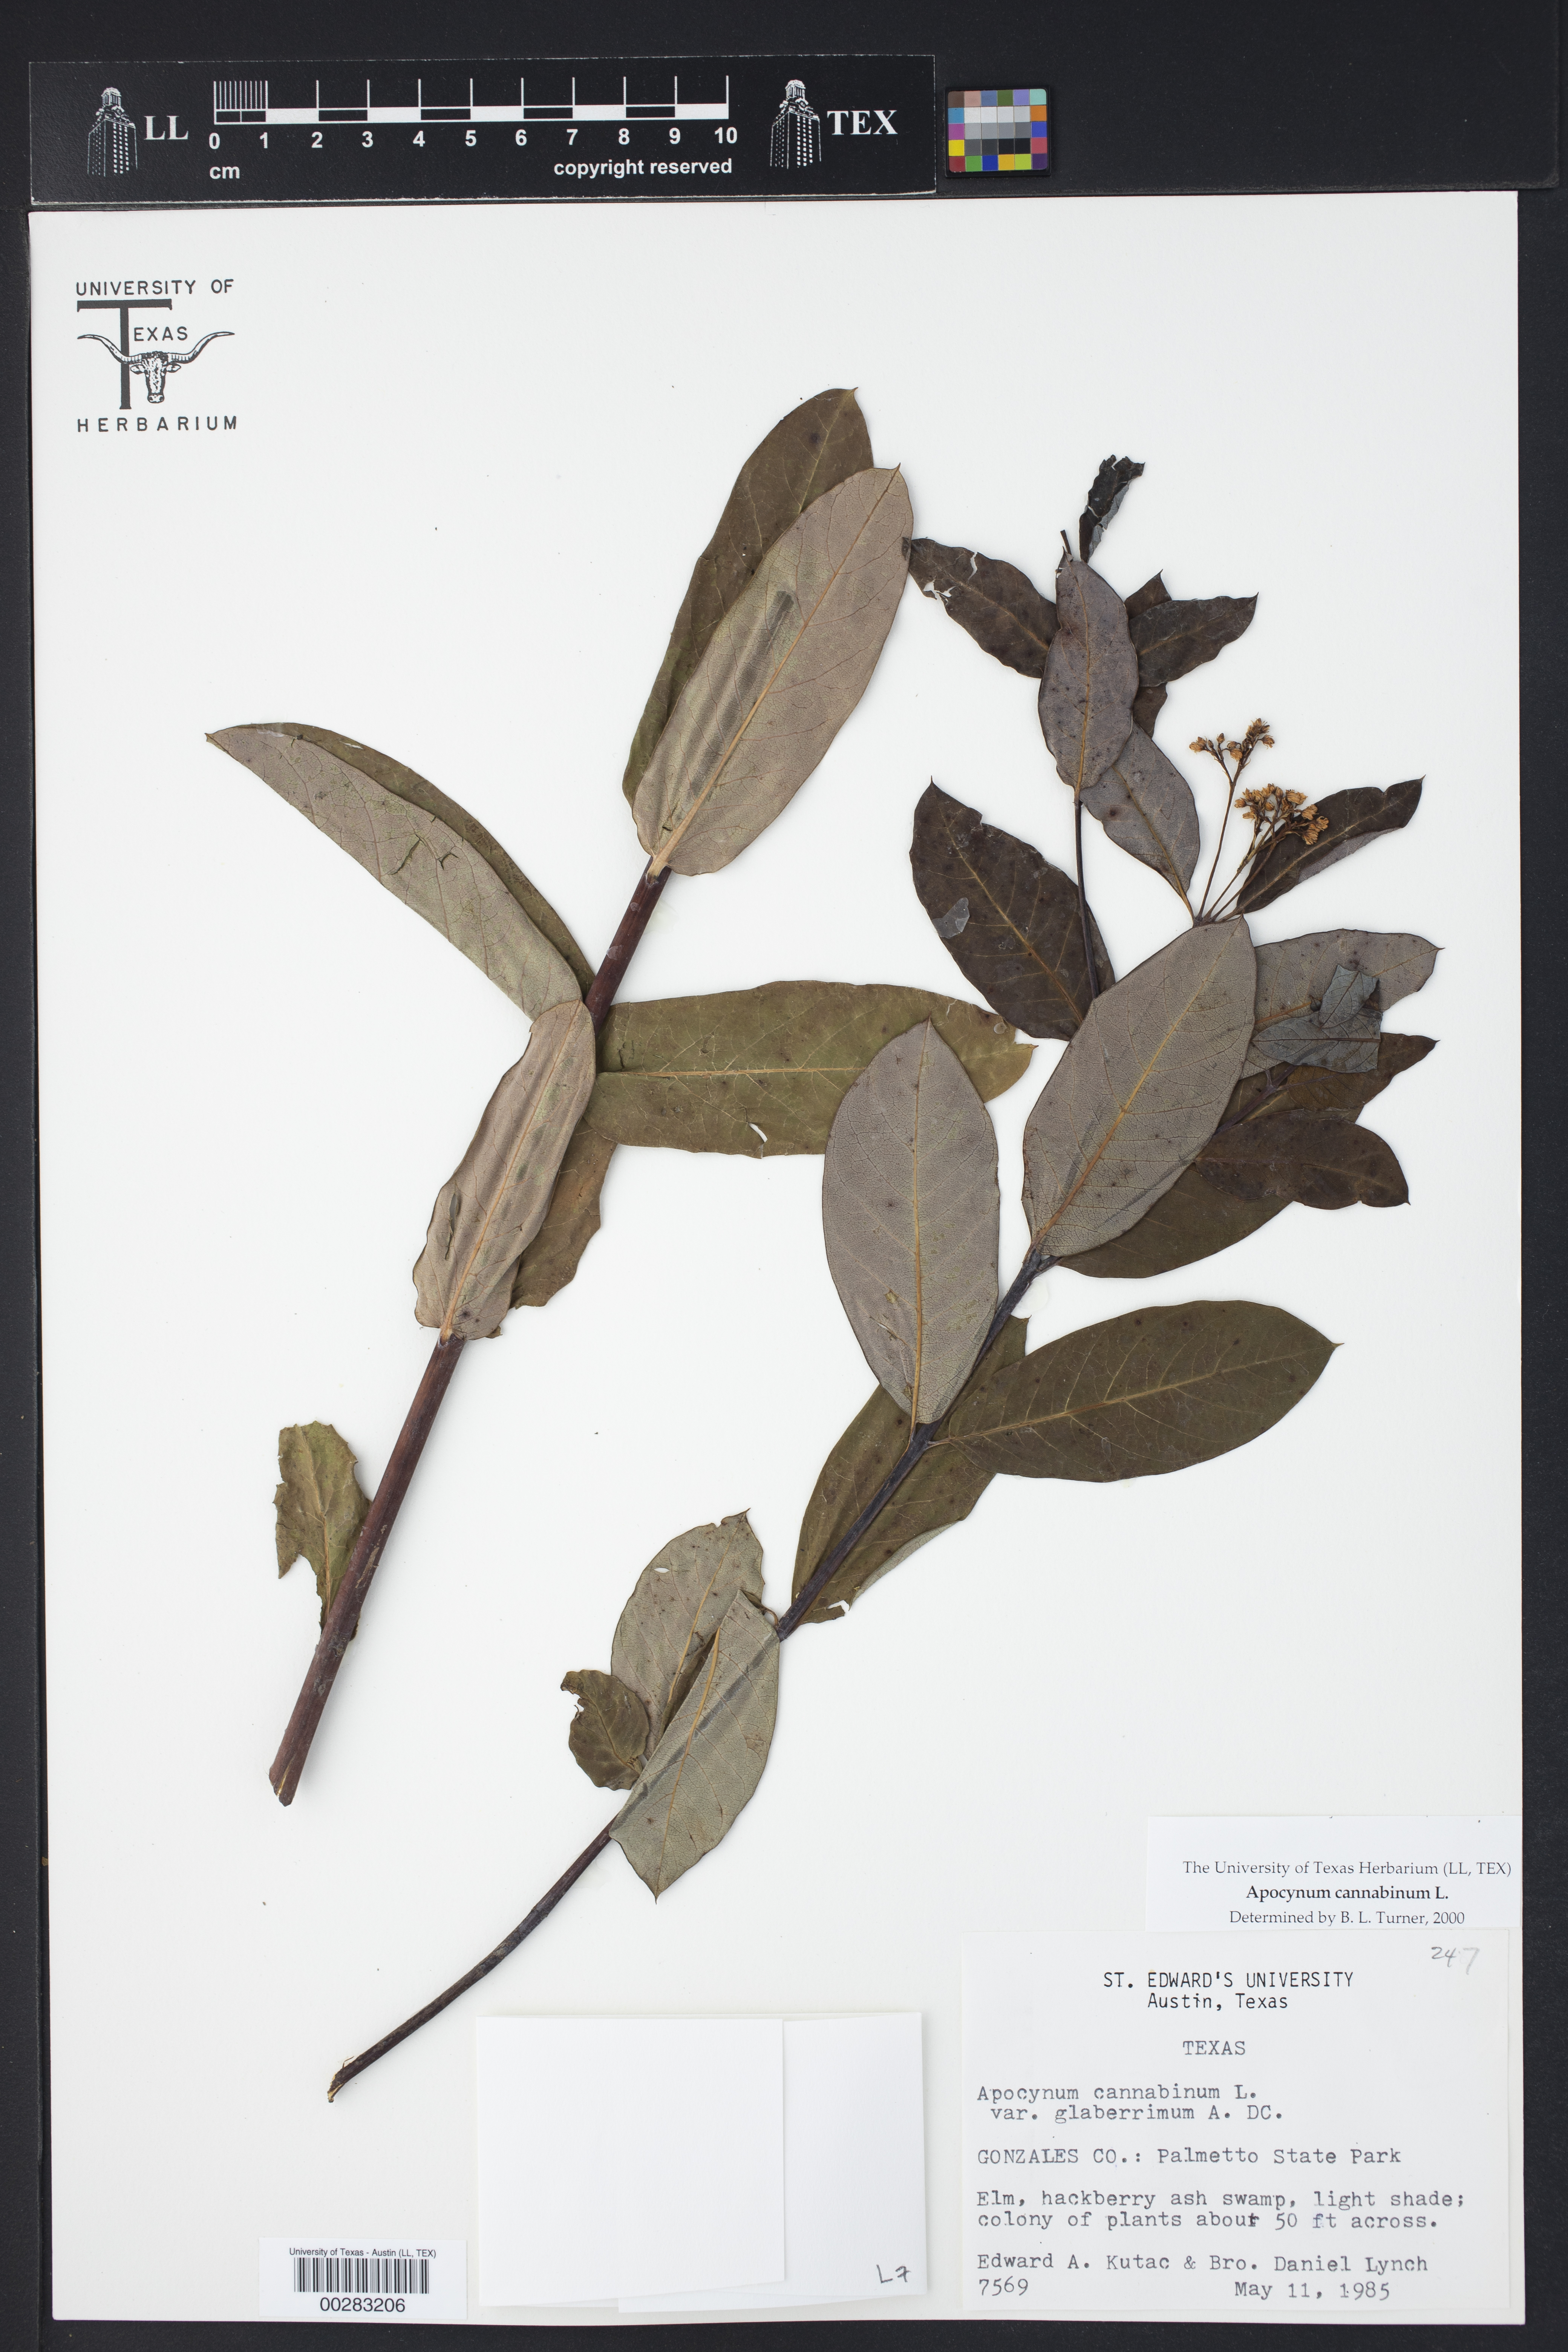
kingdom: Plantae
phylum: Tracheophyta
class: Magnoliopsida
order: Gentianales
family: Apocynaceae
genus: Apocynum
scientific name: Apocynum cannabinum
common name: Hemp dogbane
